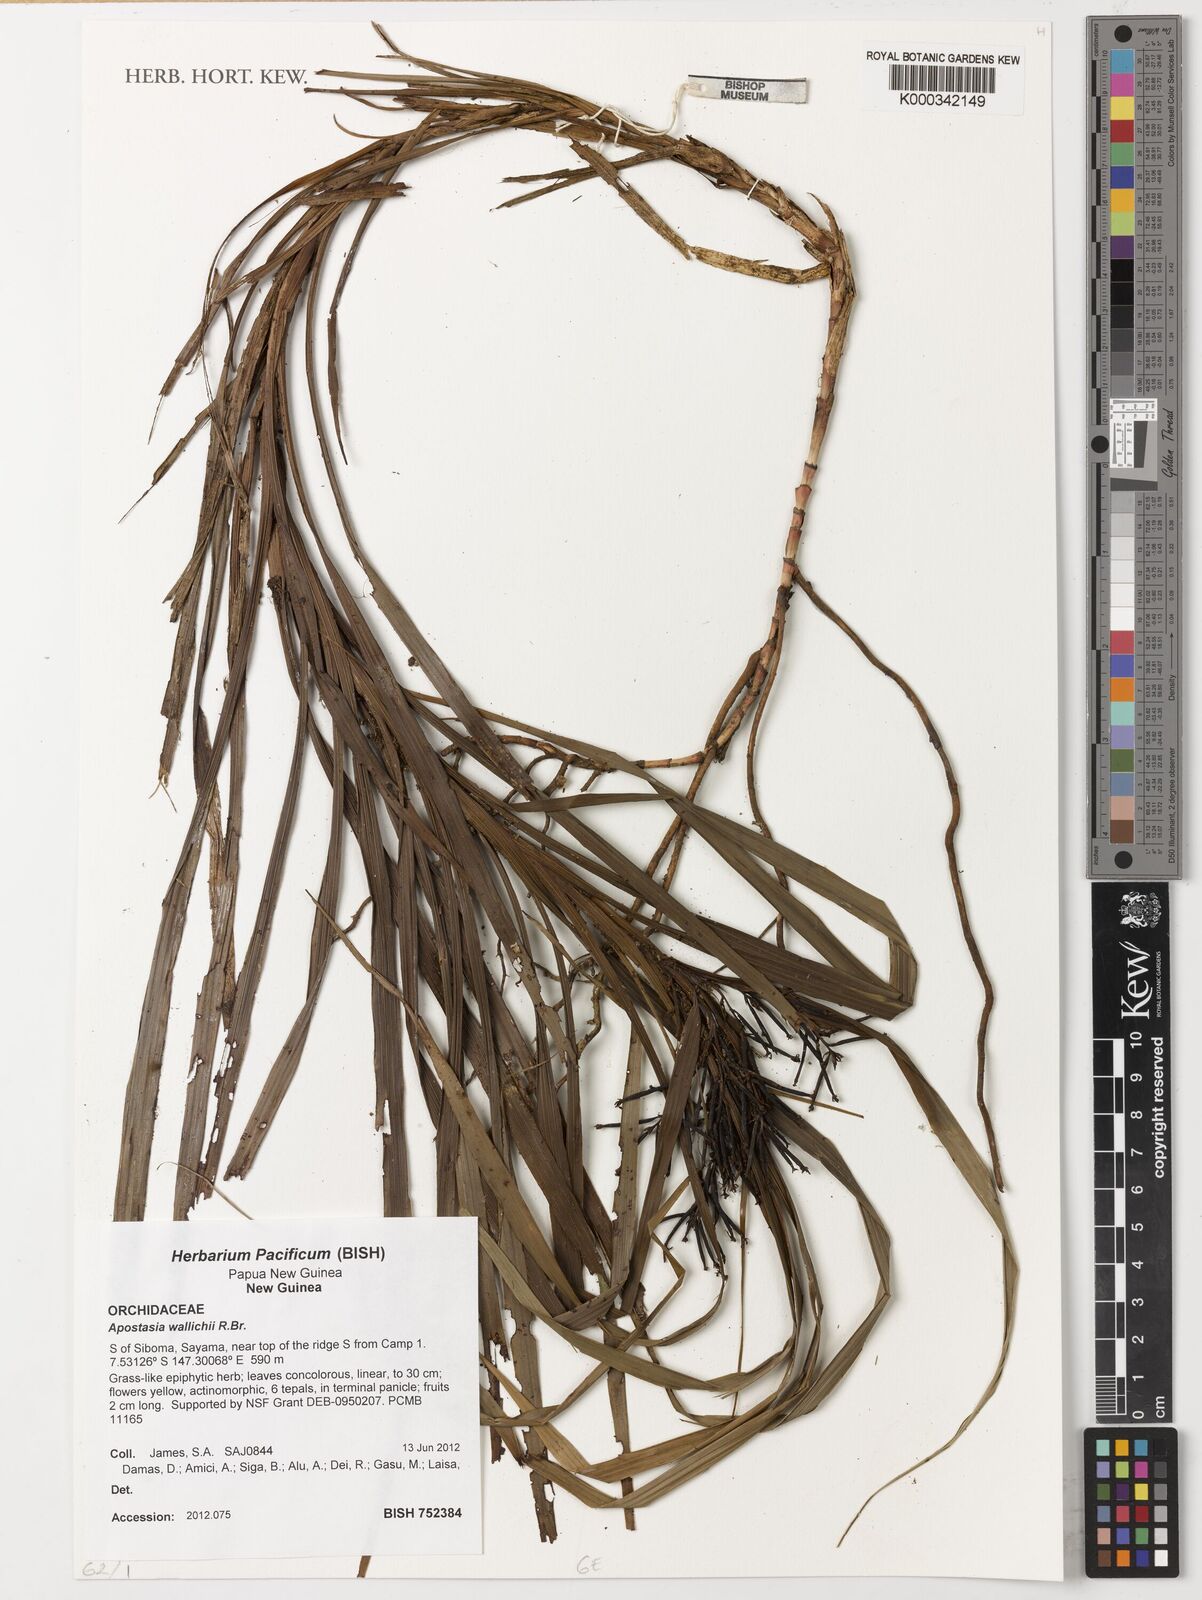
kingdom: Plantae
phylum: Tracheophyta
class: Liliopsida
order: Asparagales
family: Orchidaceae
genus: Apostasia
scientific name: Apostasia wallichii
